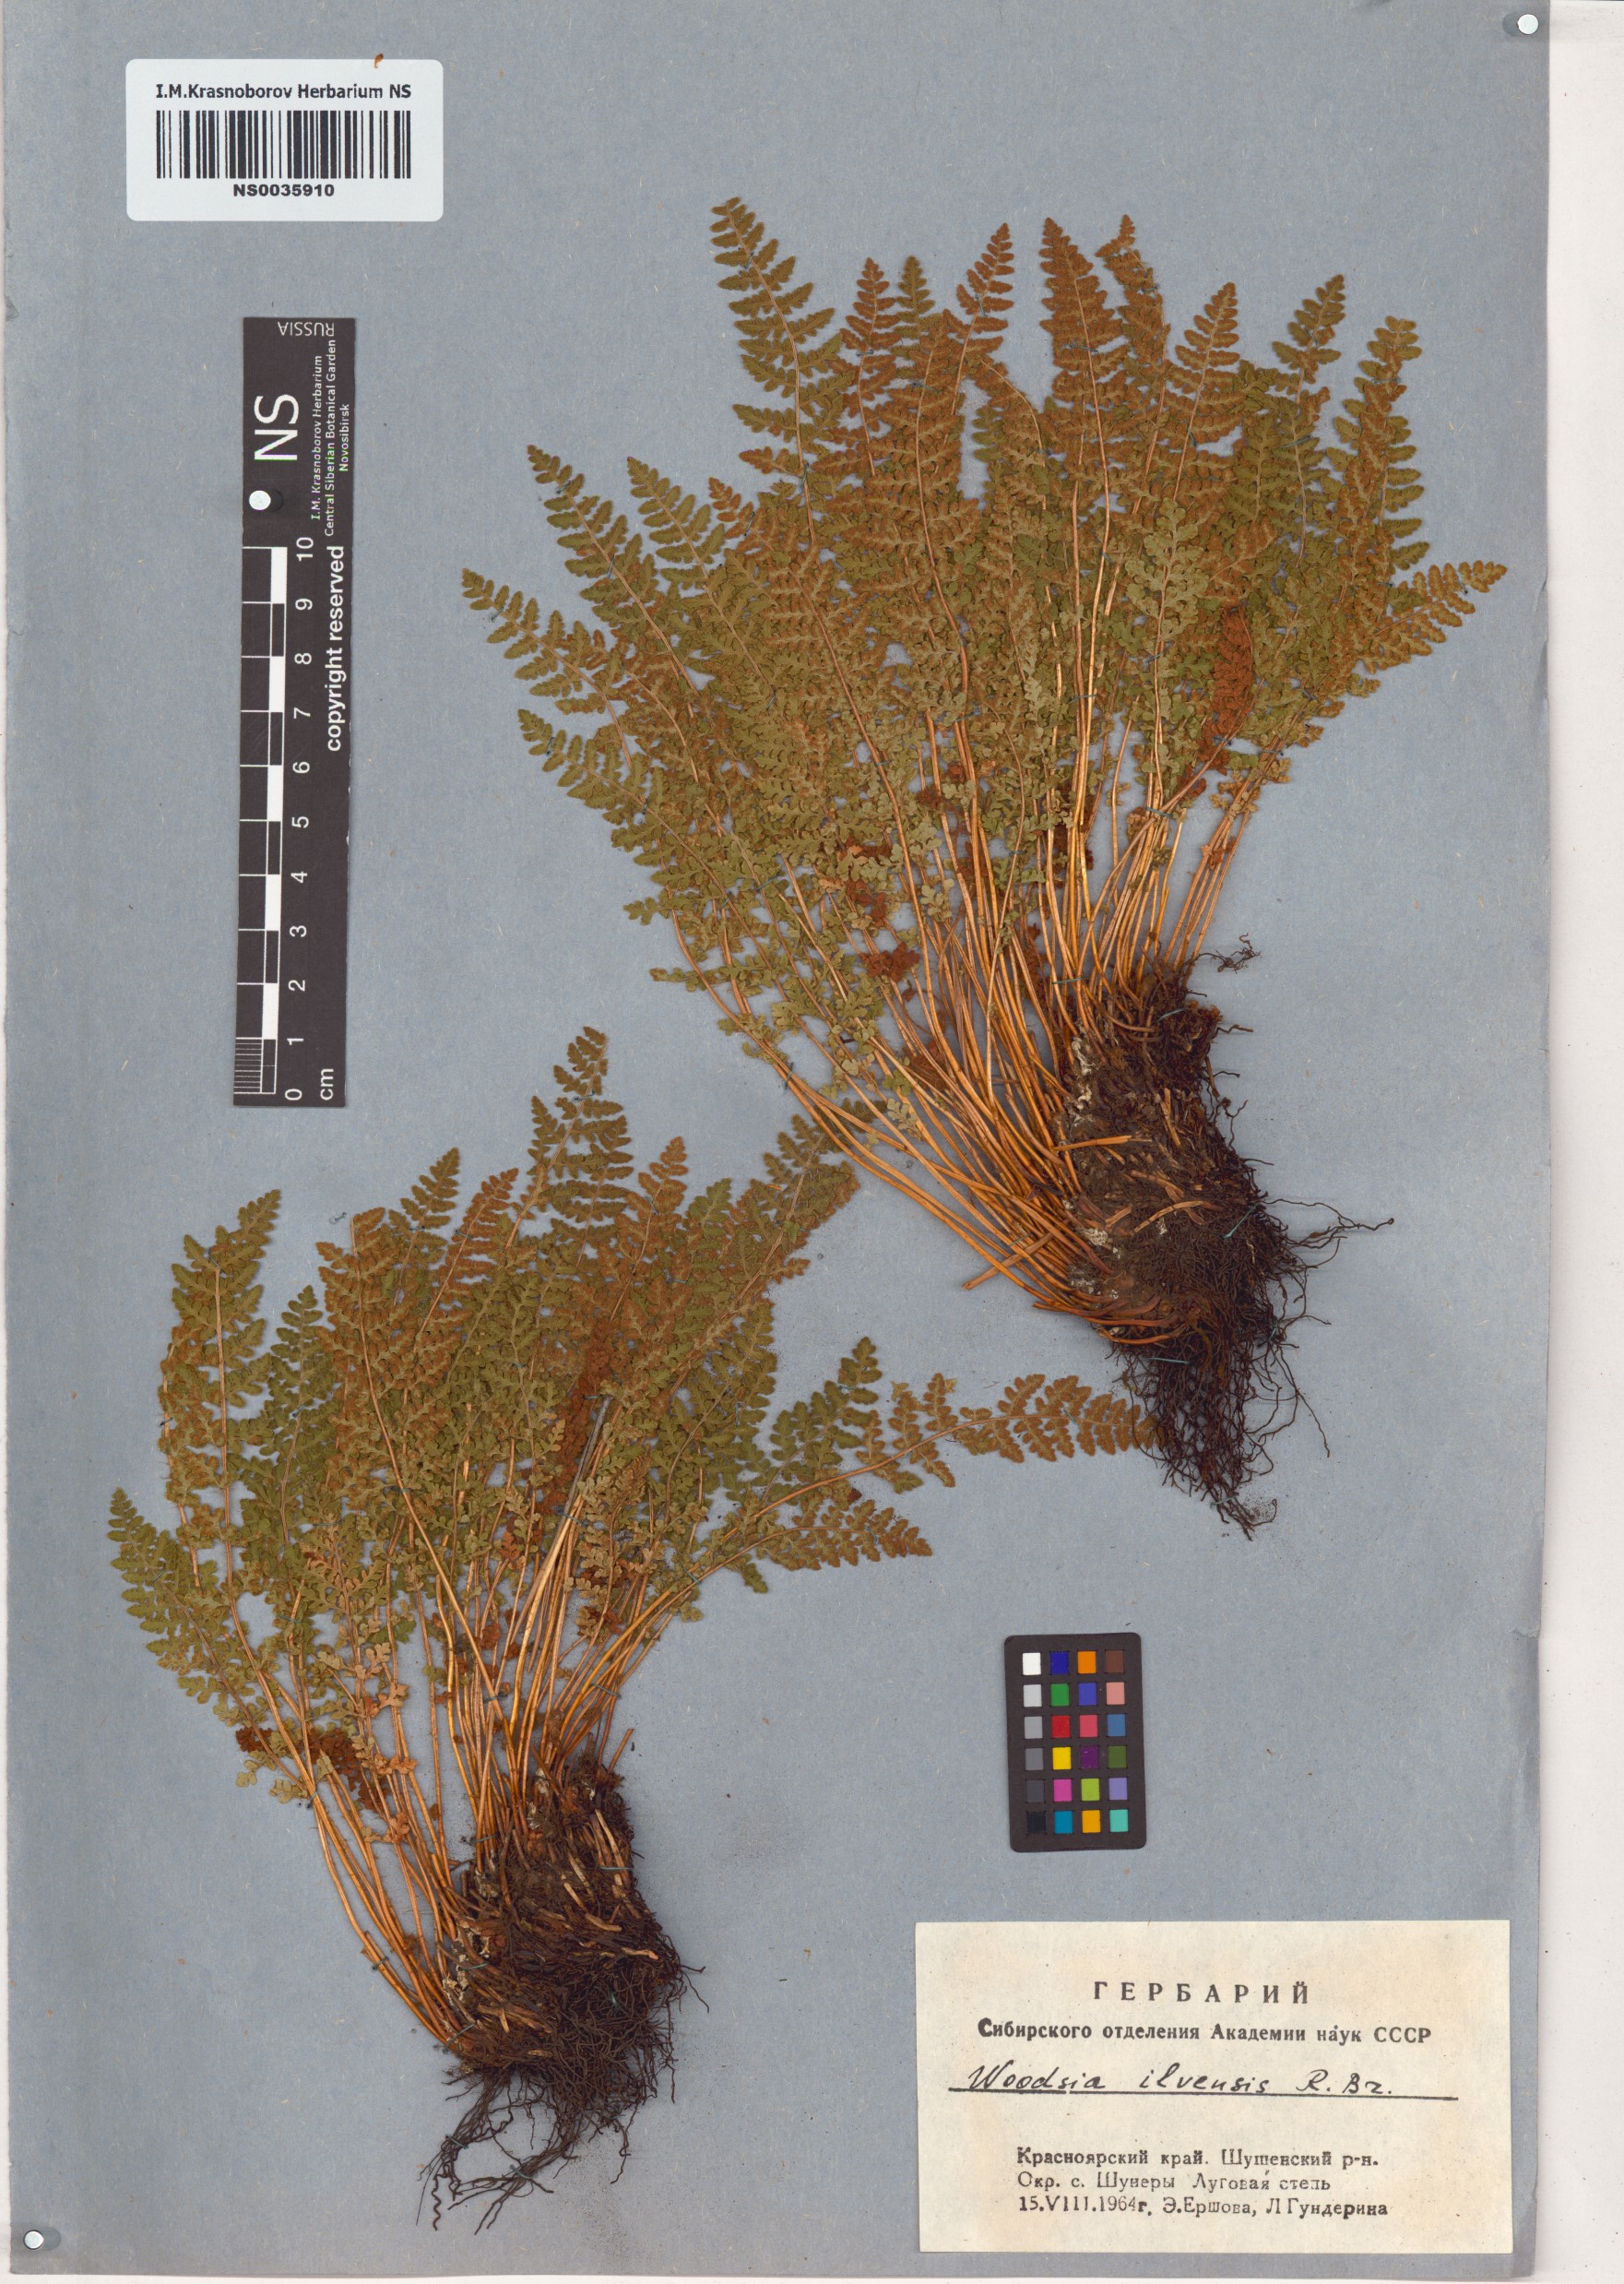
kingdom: Plantae
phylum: Tracheophyta
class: Polypodiopsida
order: Polypodiales
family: Woodsiaceae
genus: Woodsia
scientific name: Woodsia ilvensis
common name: Fragrant woodsia
